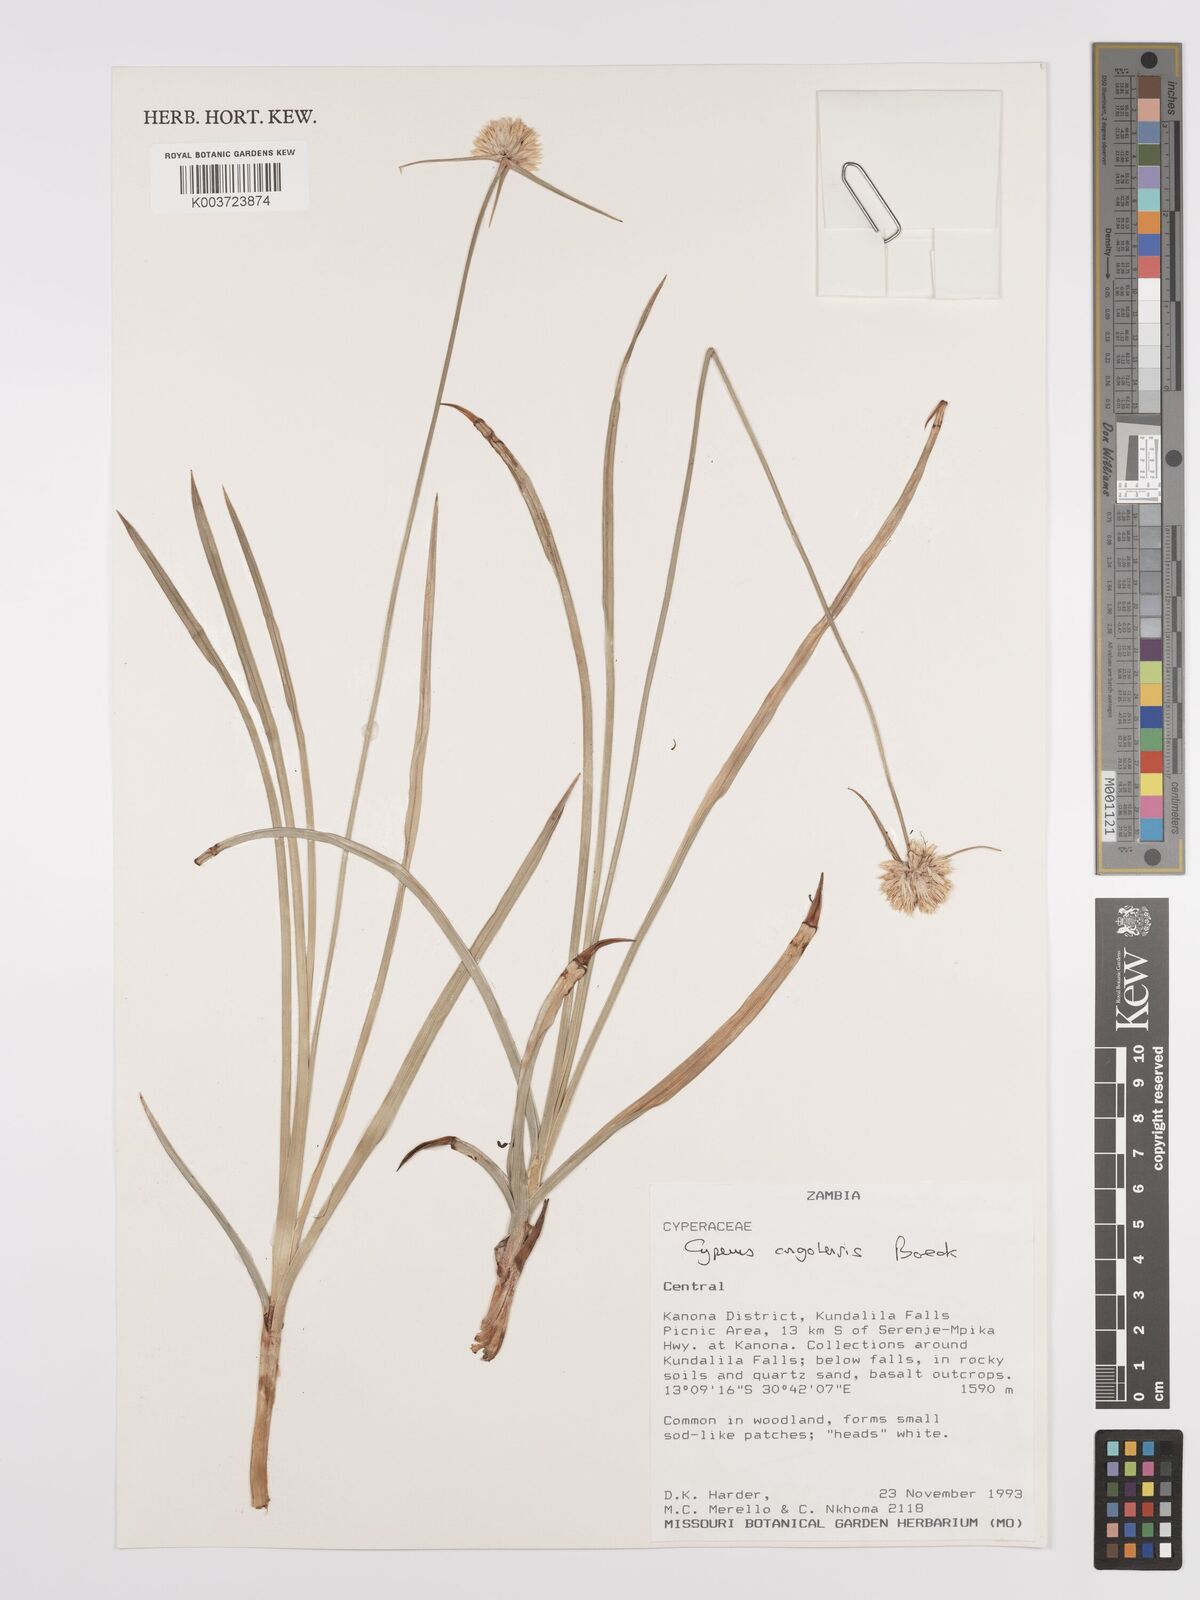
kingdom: Plantae
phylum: Tracheophyta
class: Liliopsida
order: Poales
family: Cyperaceae
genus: Cyperus
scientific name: Cyperus angolensis
